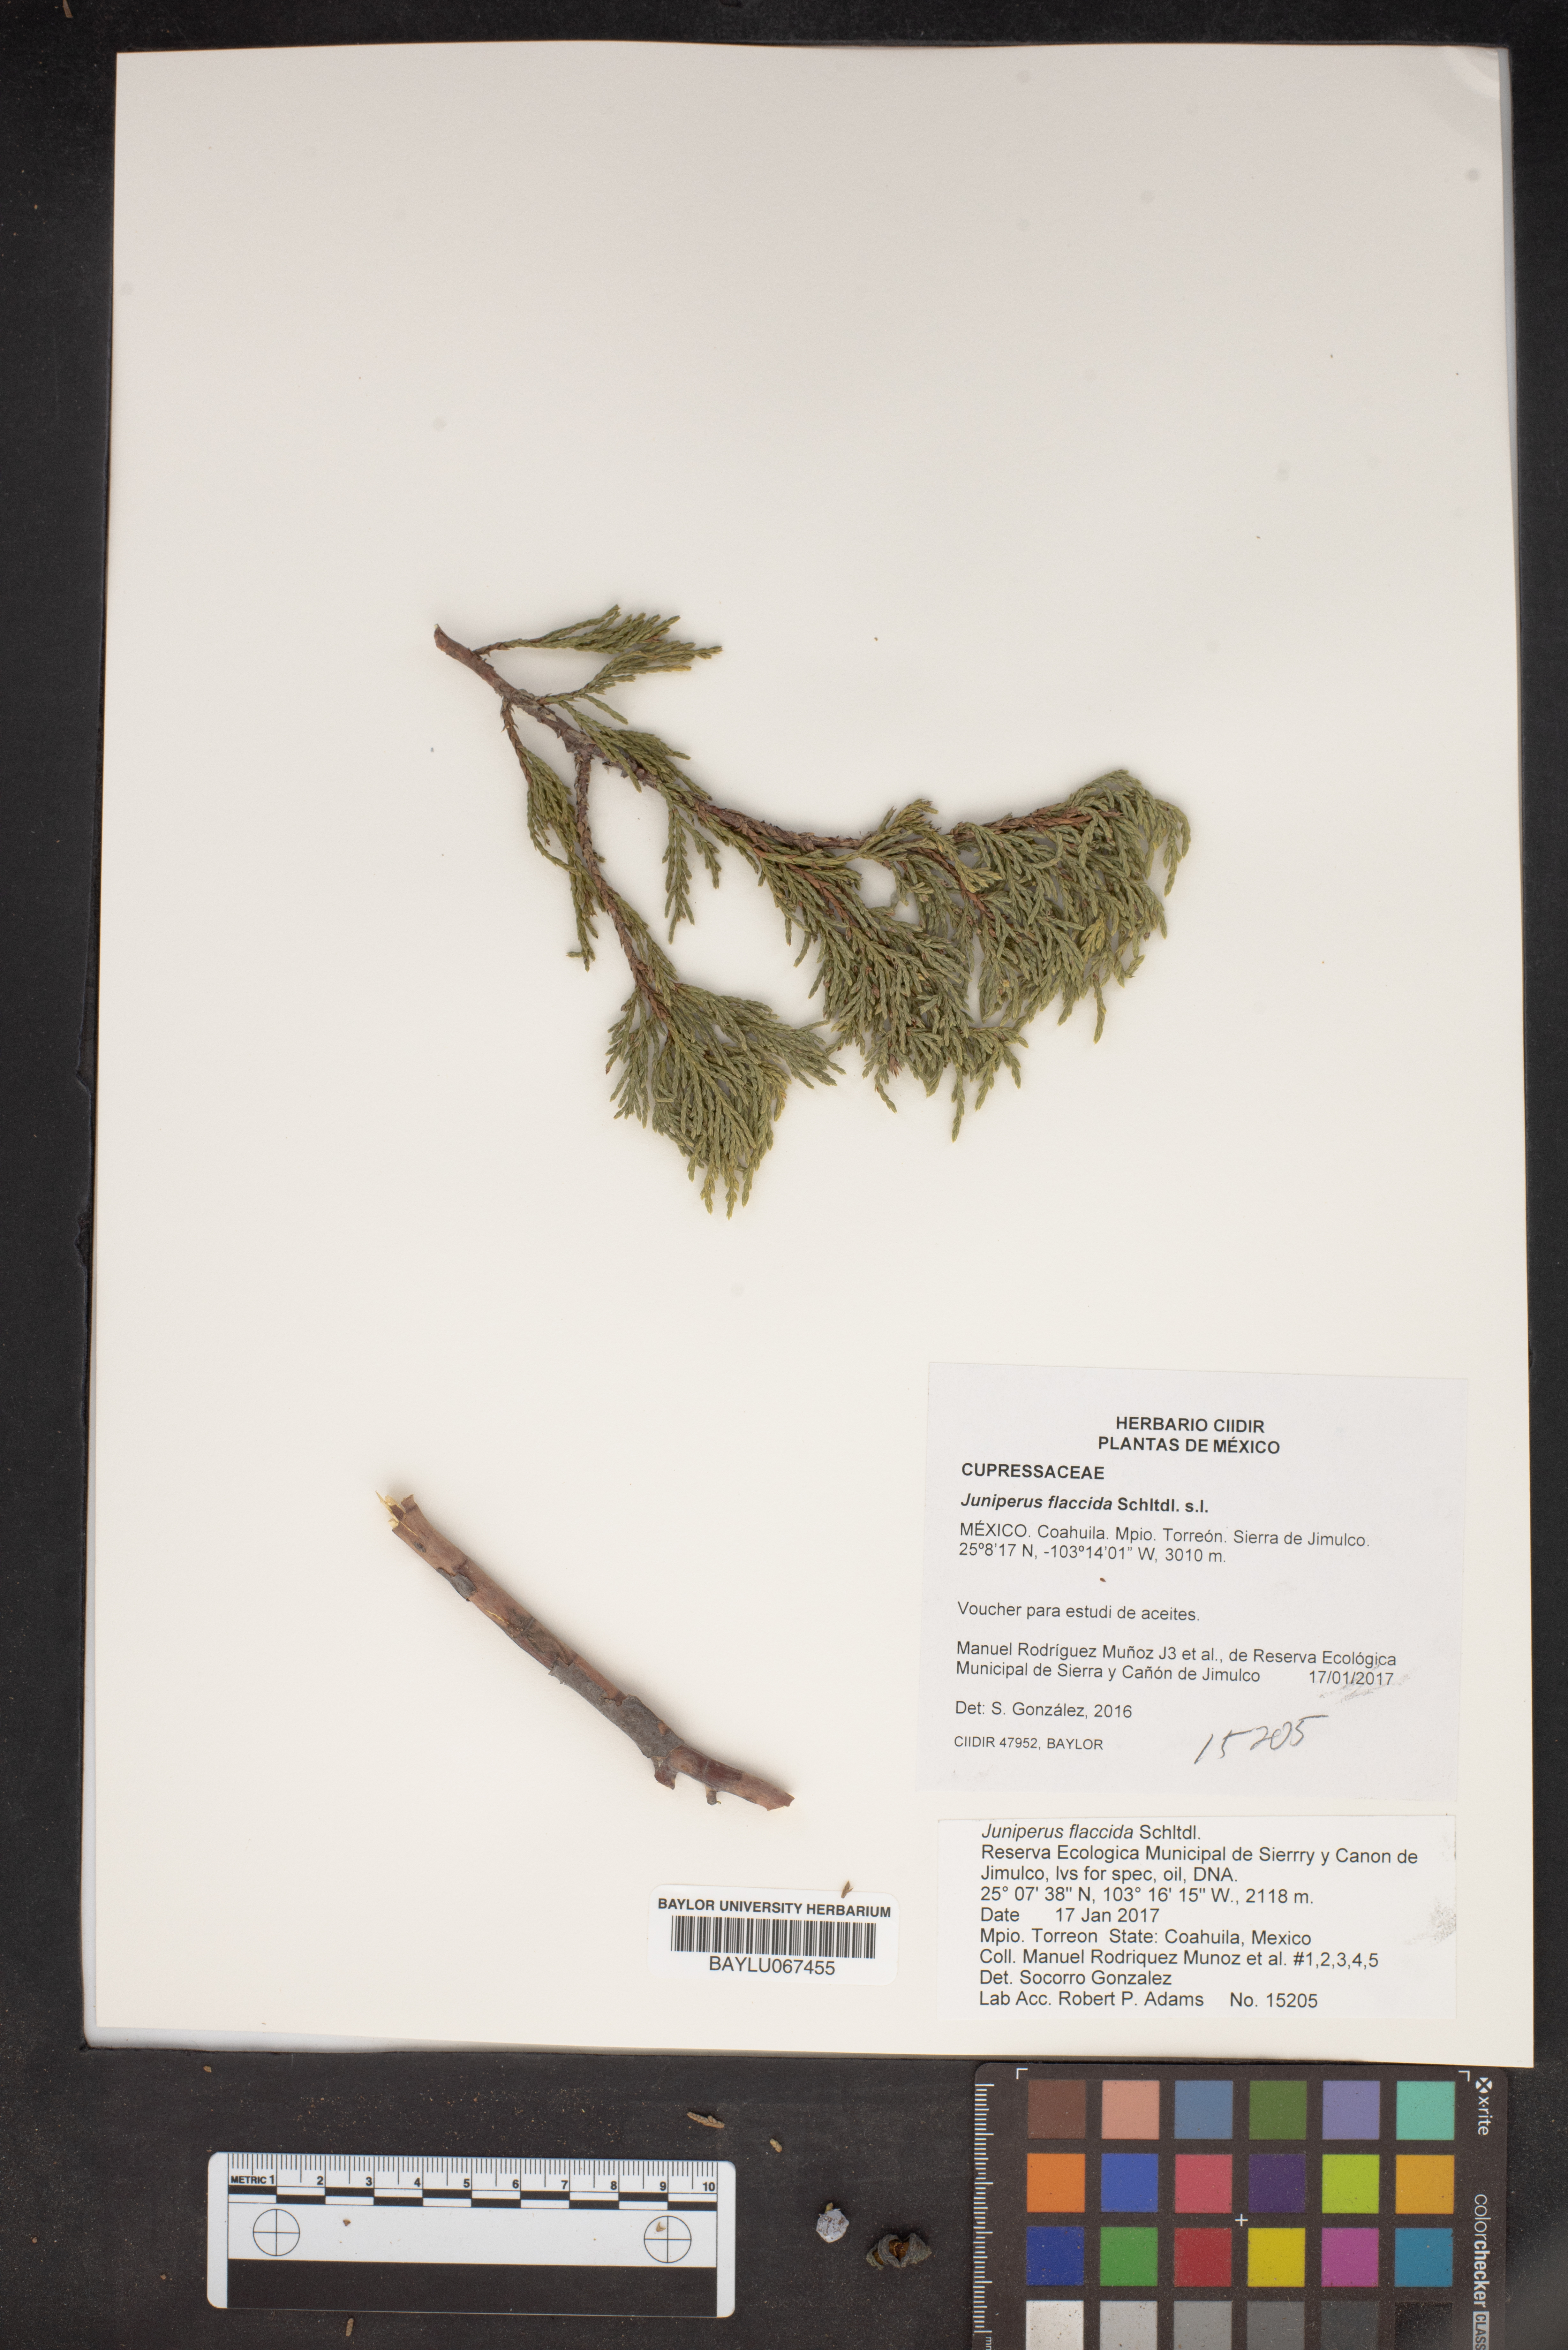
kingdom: Plantae
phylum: Tracheophyta
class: Pinopsida
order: Pinales
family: Cupressaceae
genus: Juniperus
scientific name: Juniperus flaccida
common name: Drooping juniper
